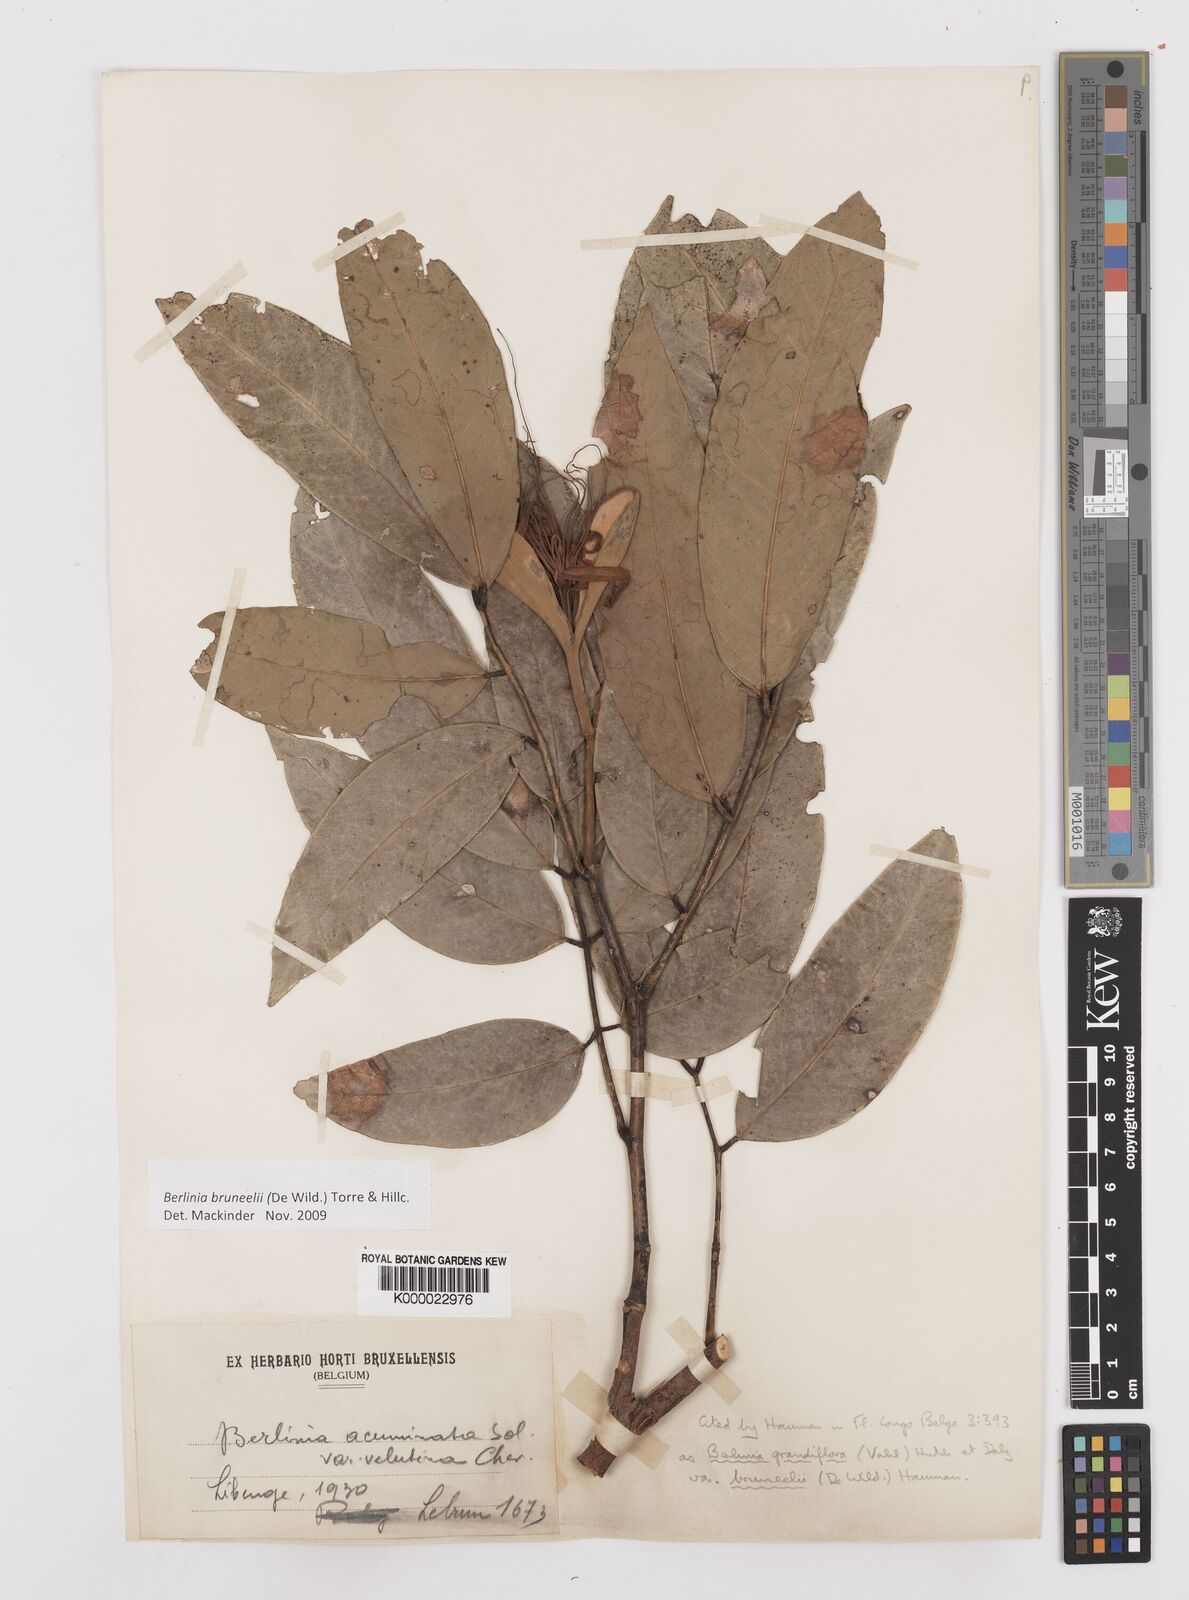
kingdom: Plantae
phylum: Tracheophyta
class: Magnoliopsida
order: Fabales
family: Fabaceae
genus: Berlinia
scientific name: Berlinia bruneelii
